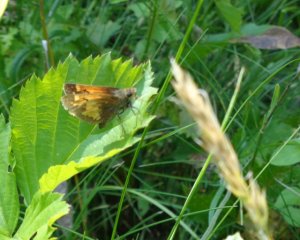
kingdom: Animalia
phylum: Arthropoda
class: Insecta
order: Lepidoptera
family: Hesperiidae
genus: Lon
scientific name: Lon hobomok
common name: Hobomok Skipper
